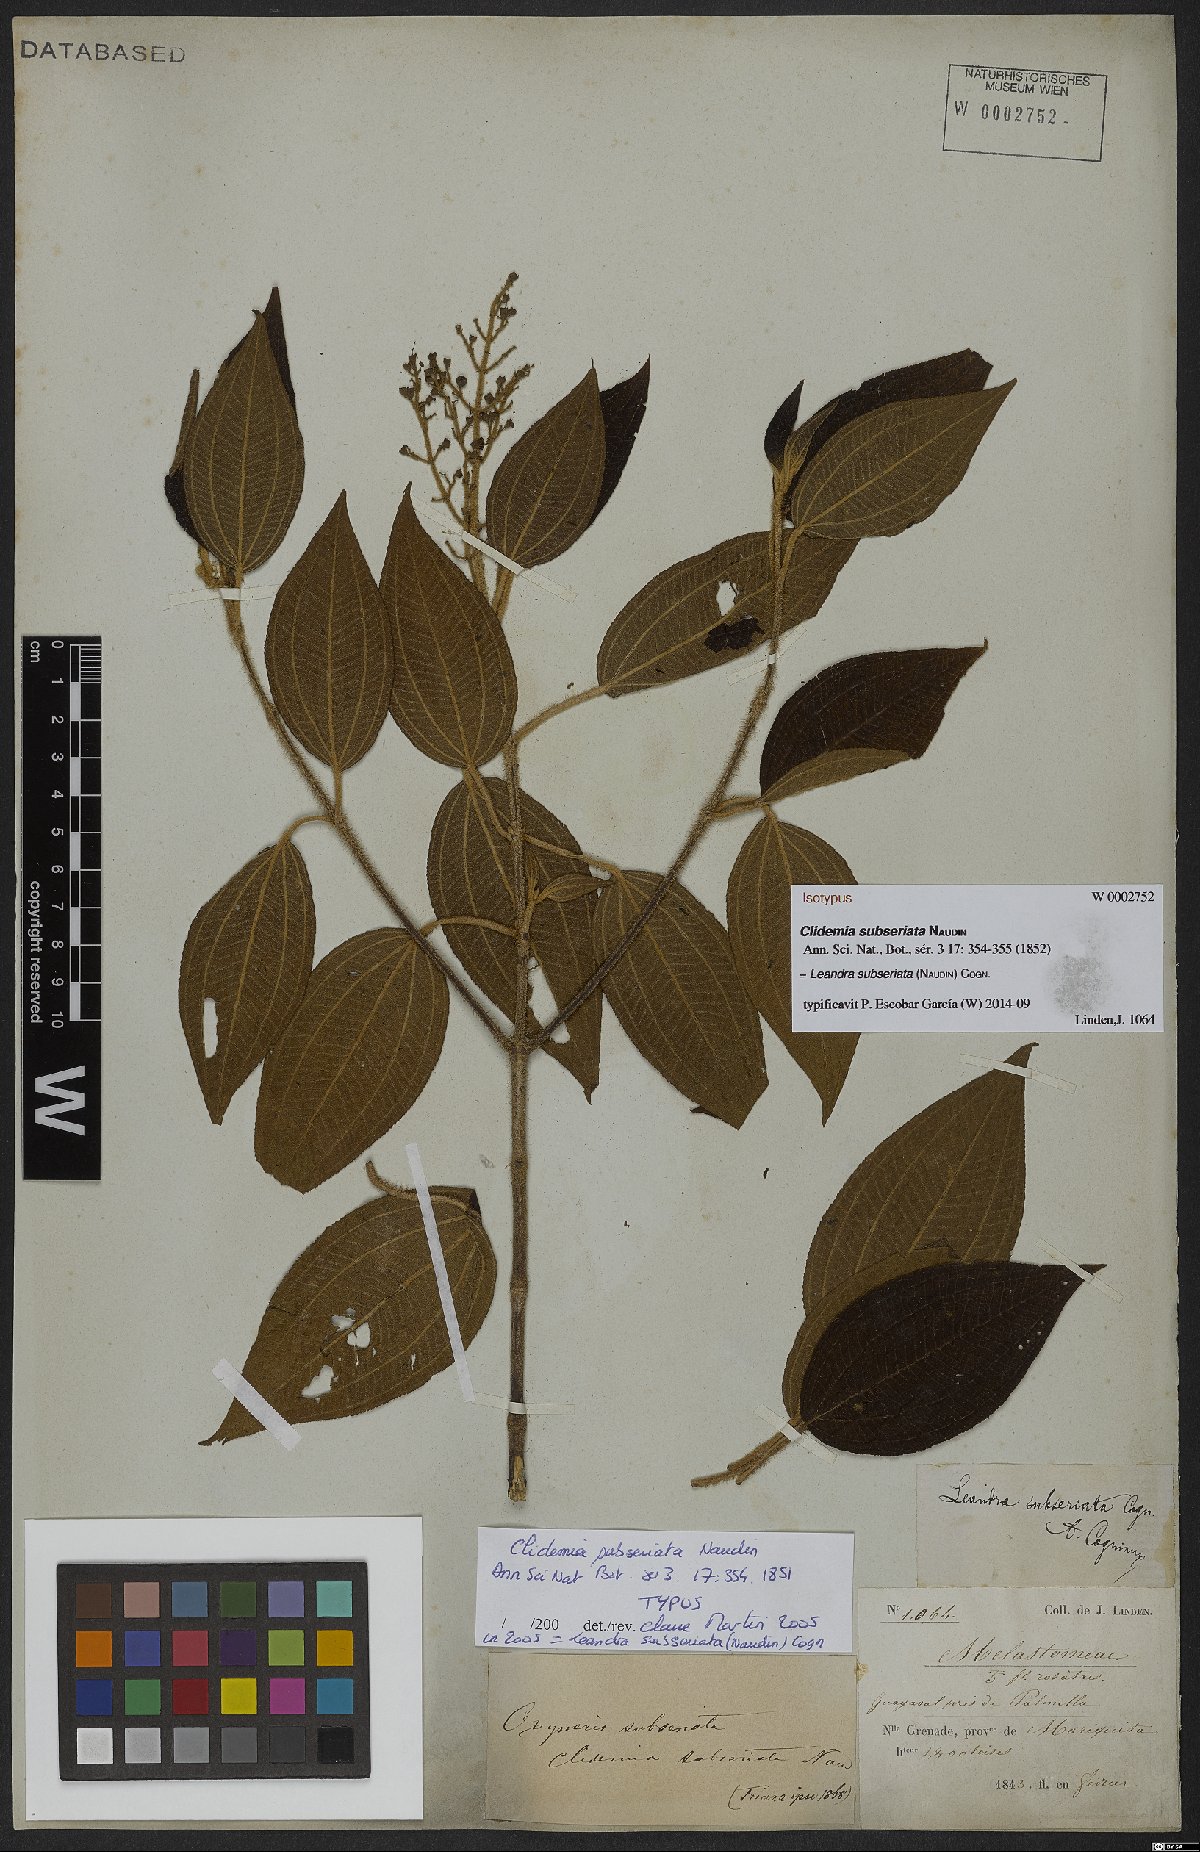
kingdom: Plantae
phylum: Tracheophyta
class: Magnoliopsida
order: Myrtales
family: Melastomataceae
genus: Miconia
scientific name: Miconia subseriata
